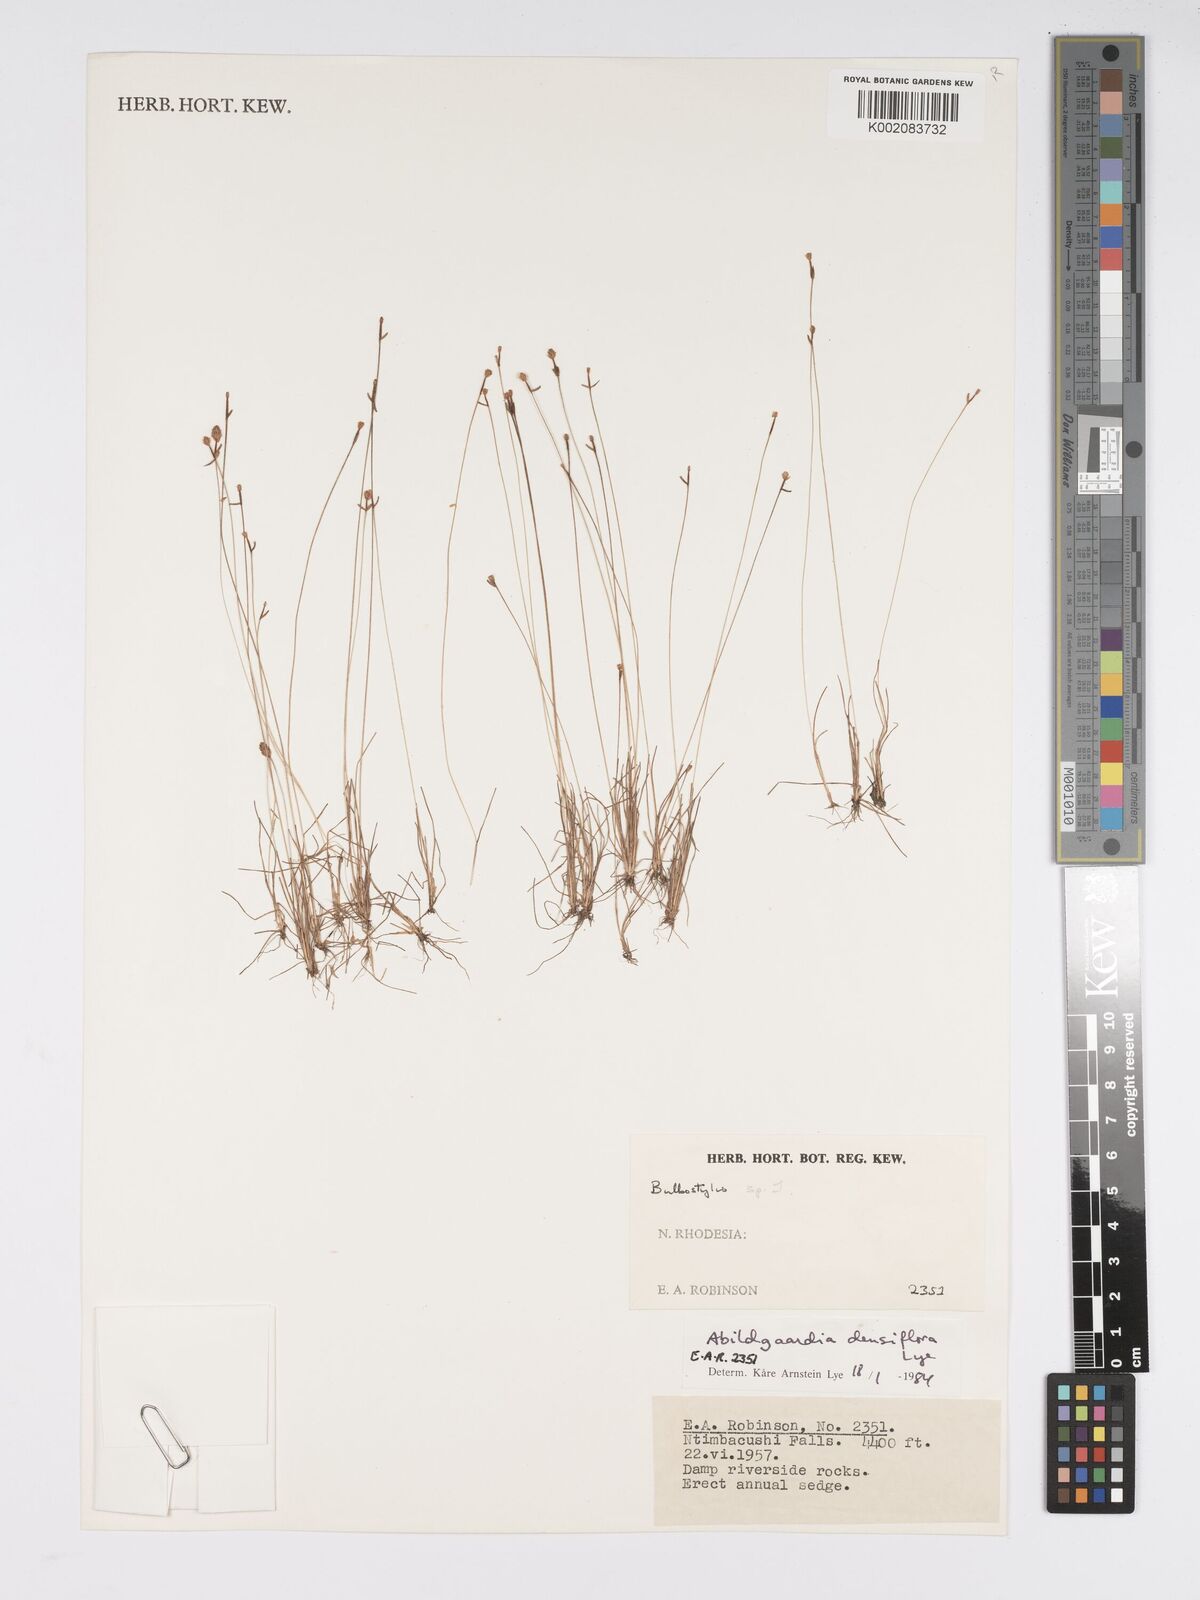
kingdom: Plantae
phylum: Tracheophyta
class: Liliopsida
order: Poales
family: Cyperaceae
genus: Bulbostylis
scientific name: Bulbostylis densiflora
